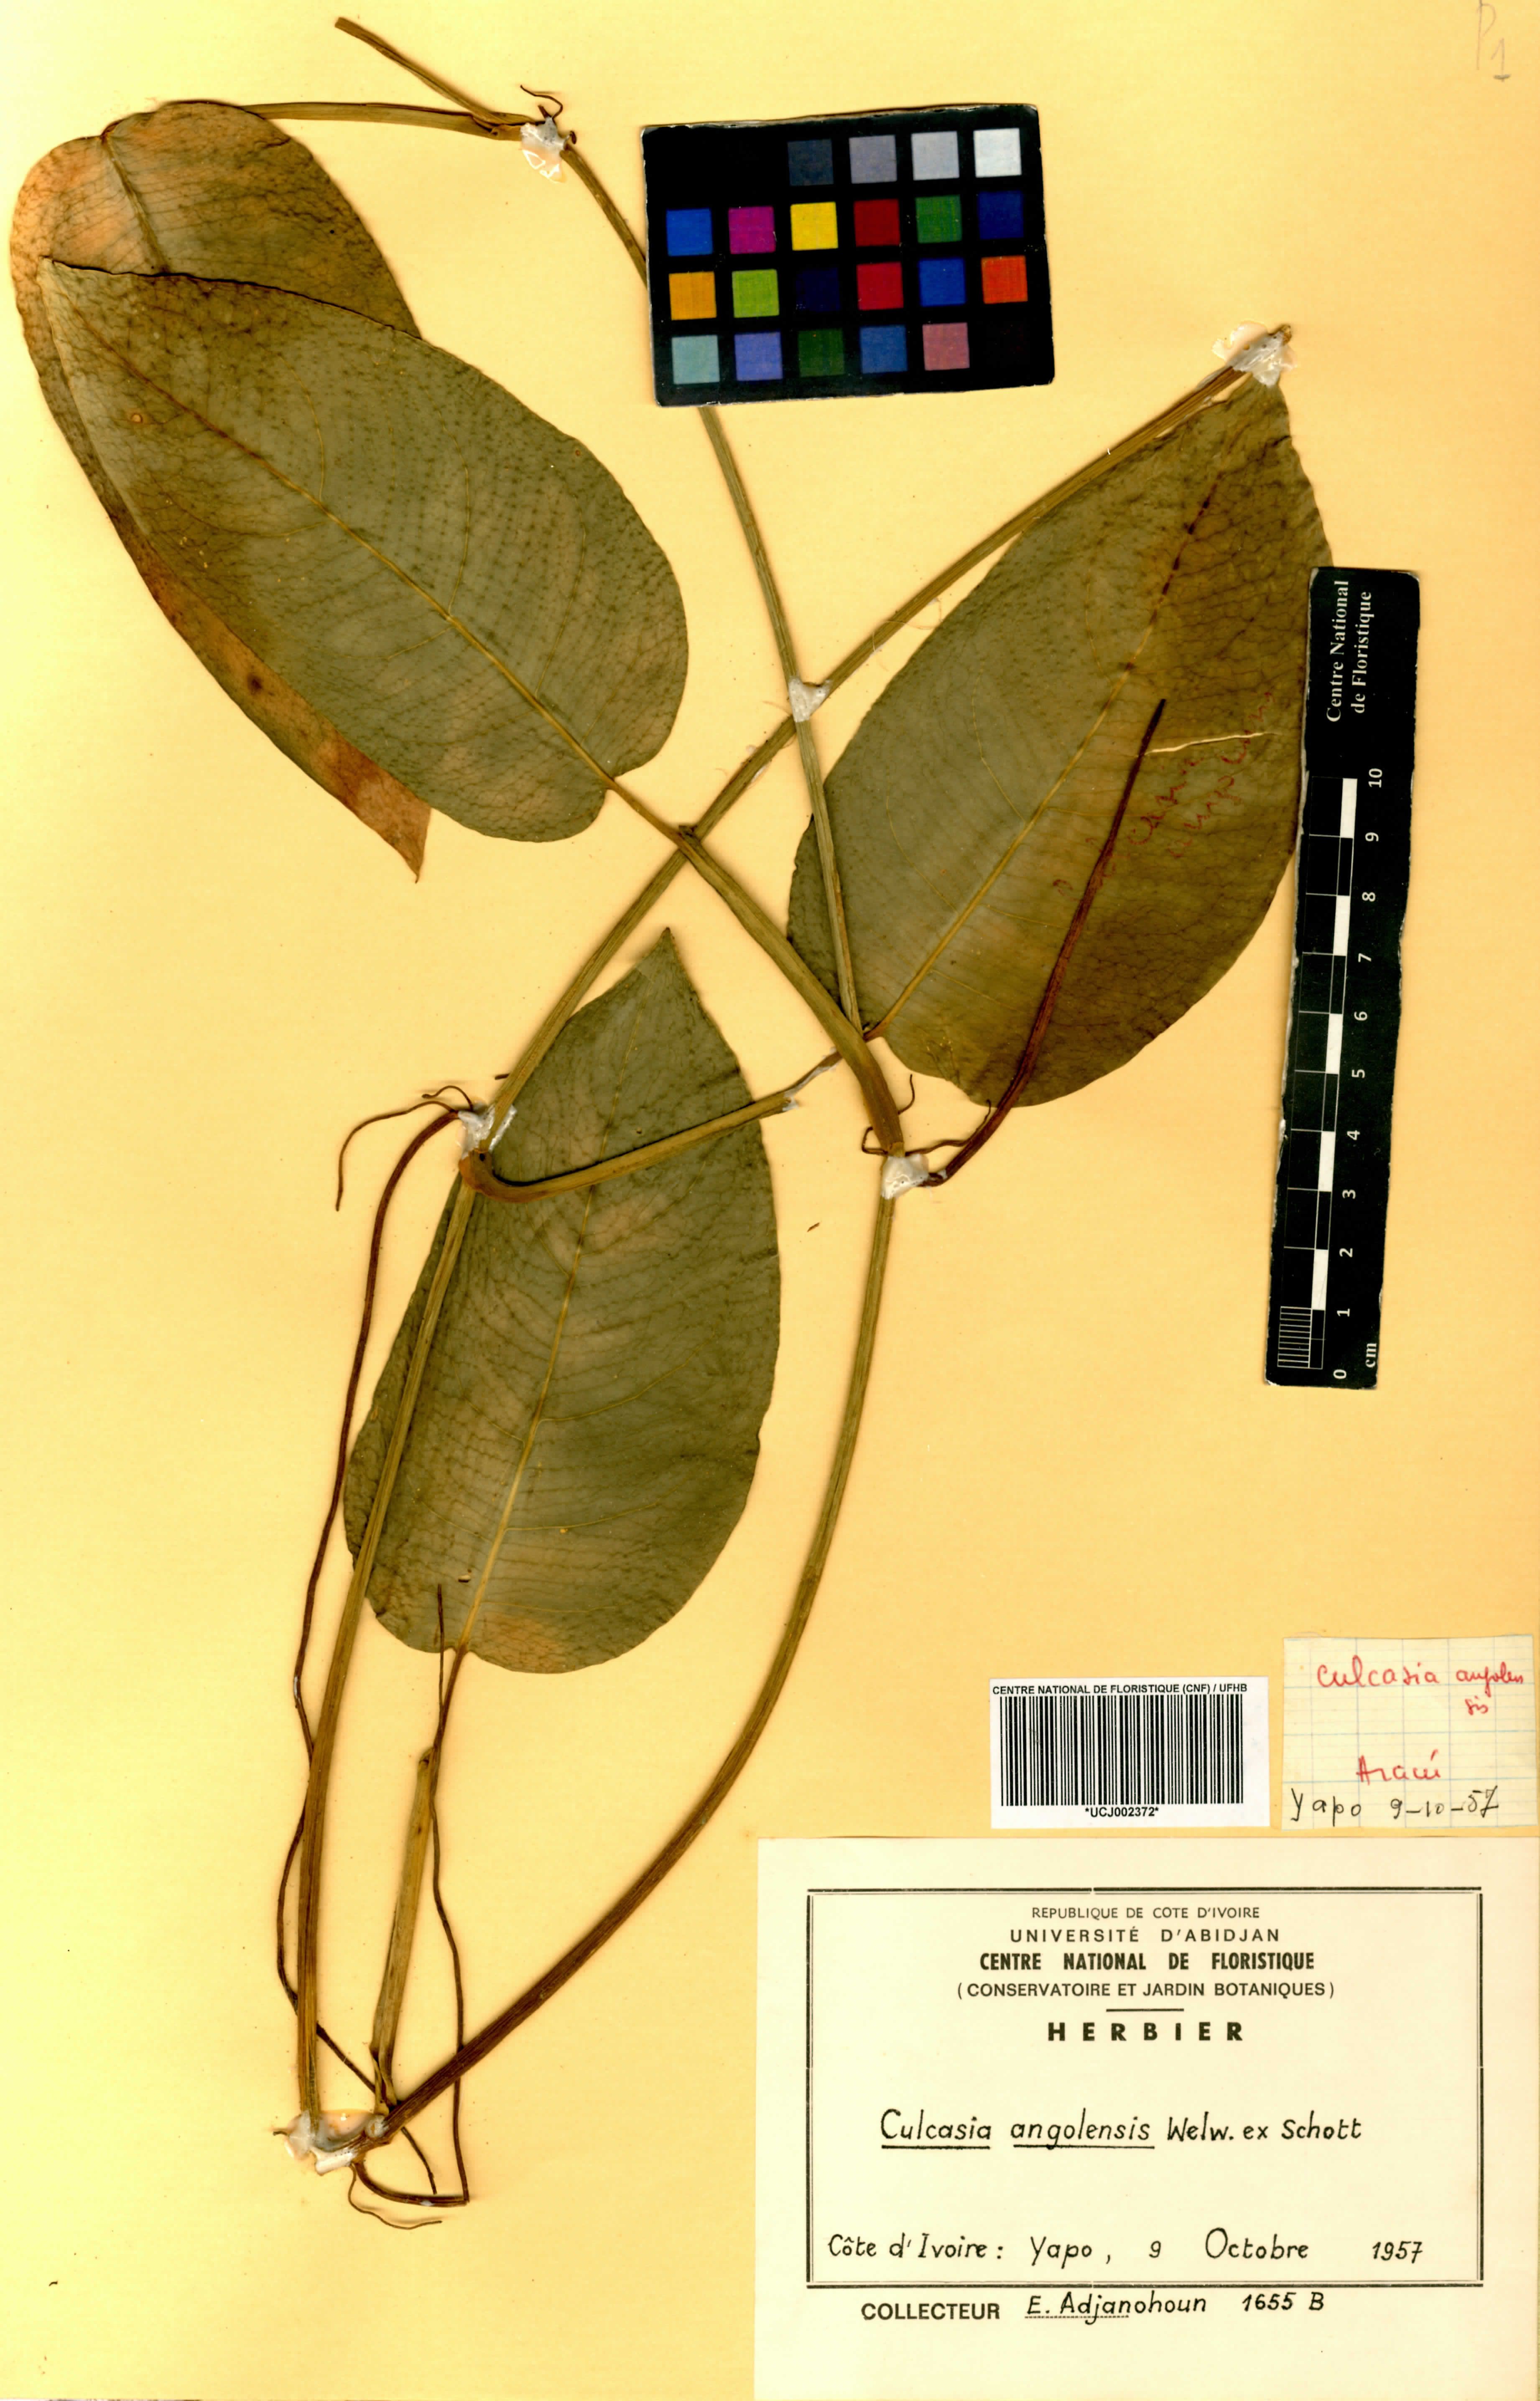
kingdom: Plantae
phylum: Tracheophyta
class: Liliopsida
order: Alismatales
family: Araceae
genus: Culcasia
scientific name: Culcasia angolensis
